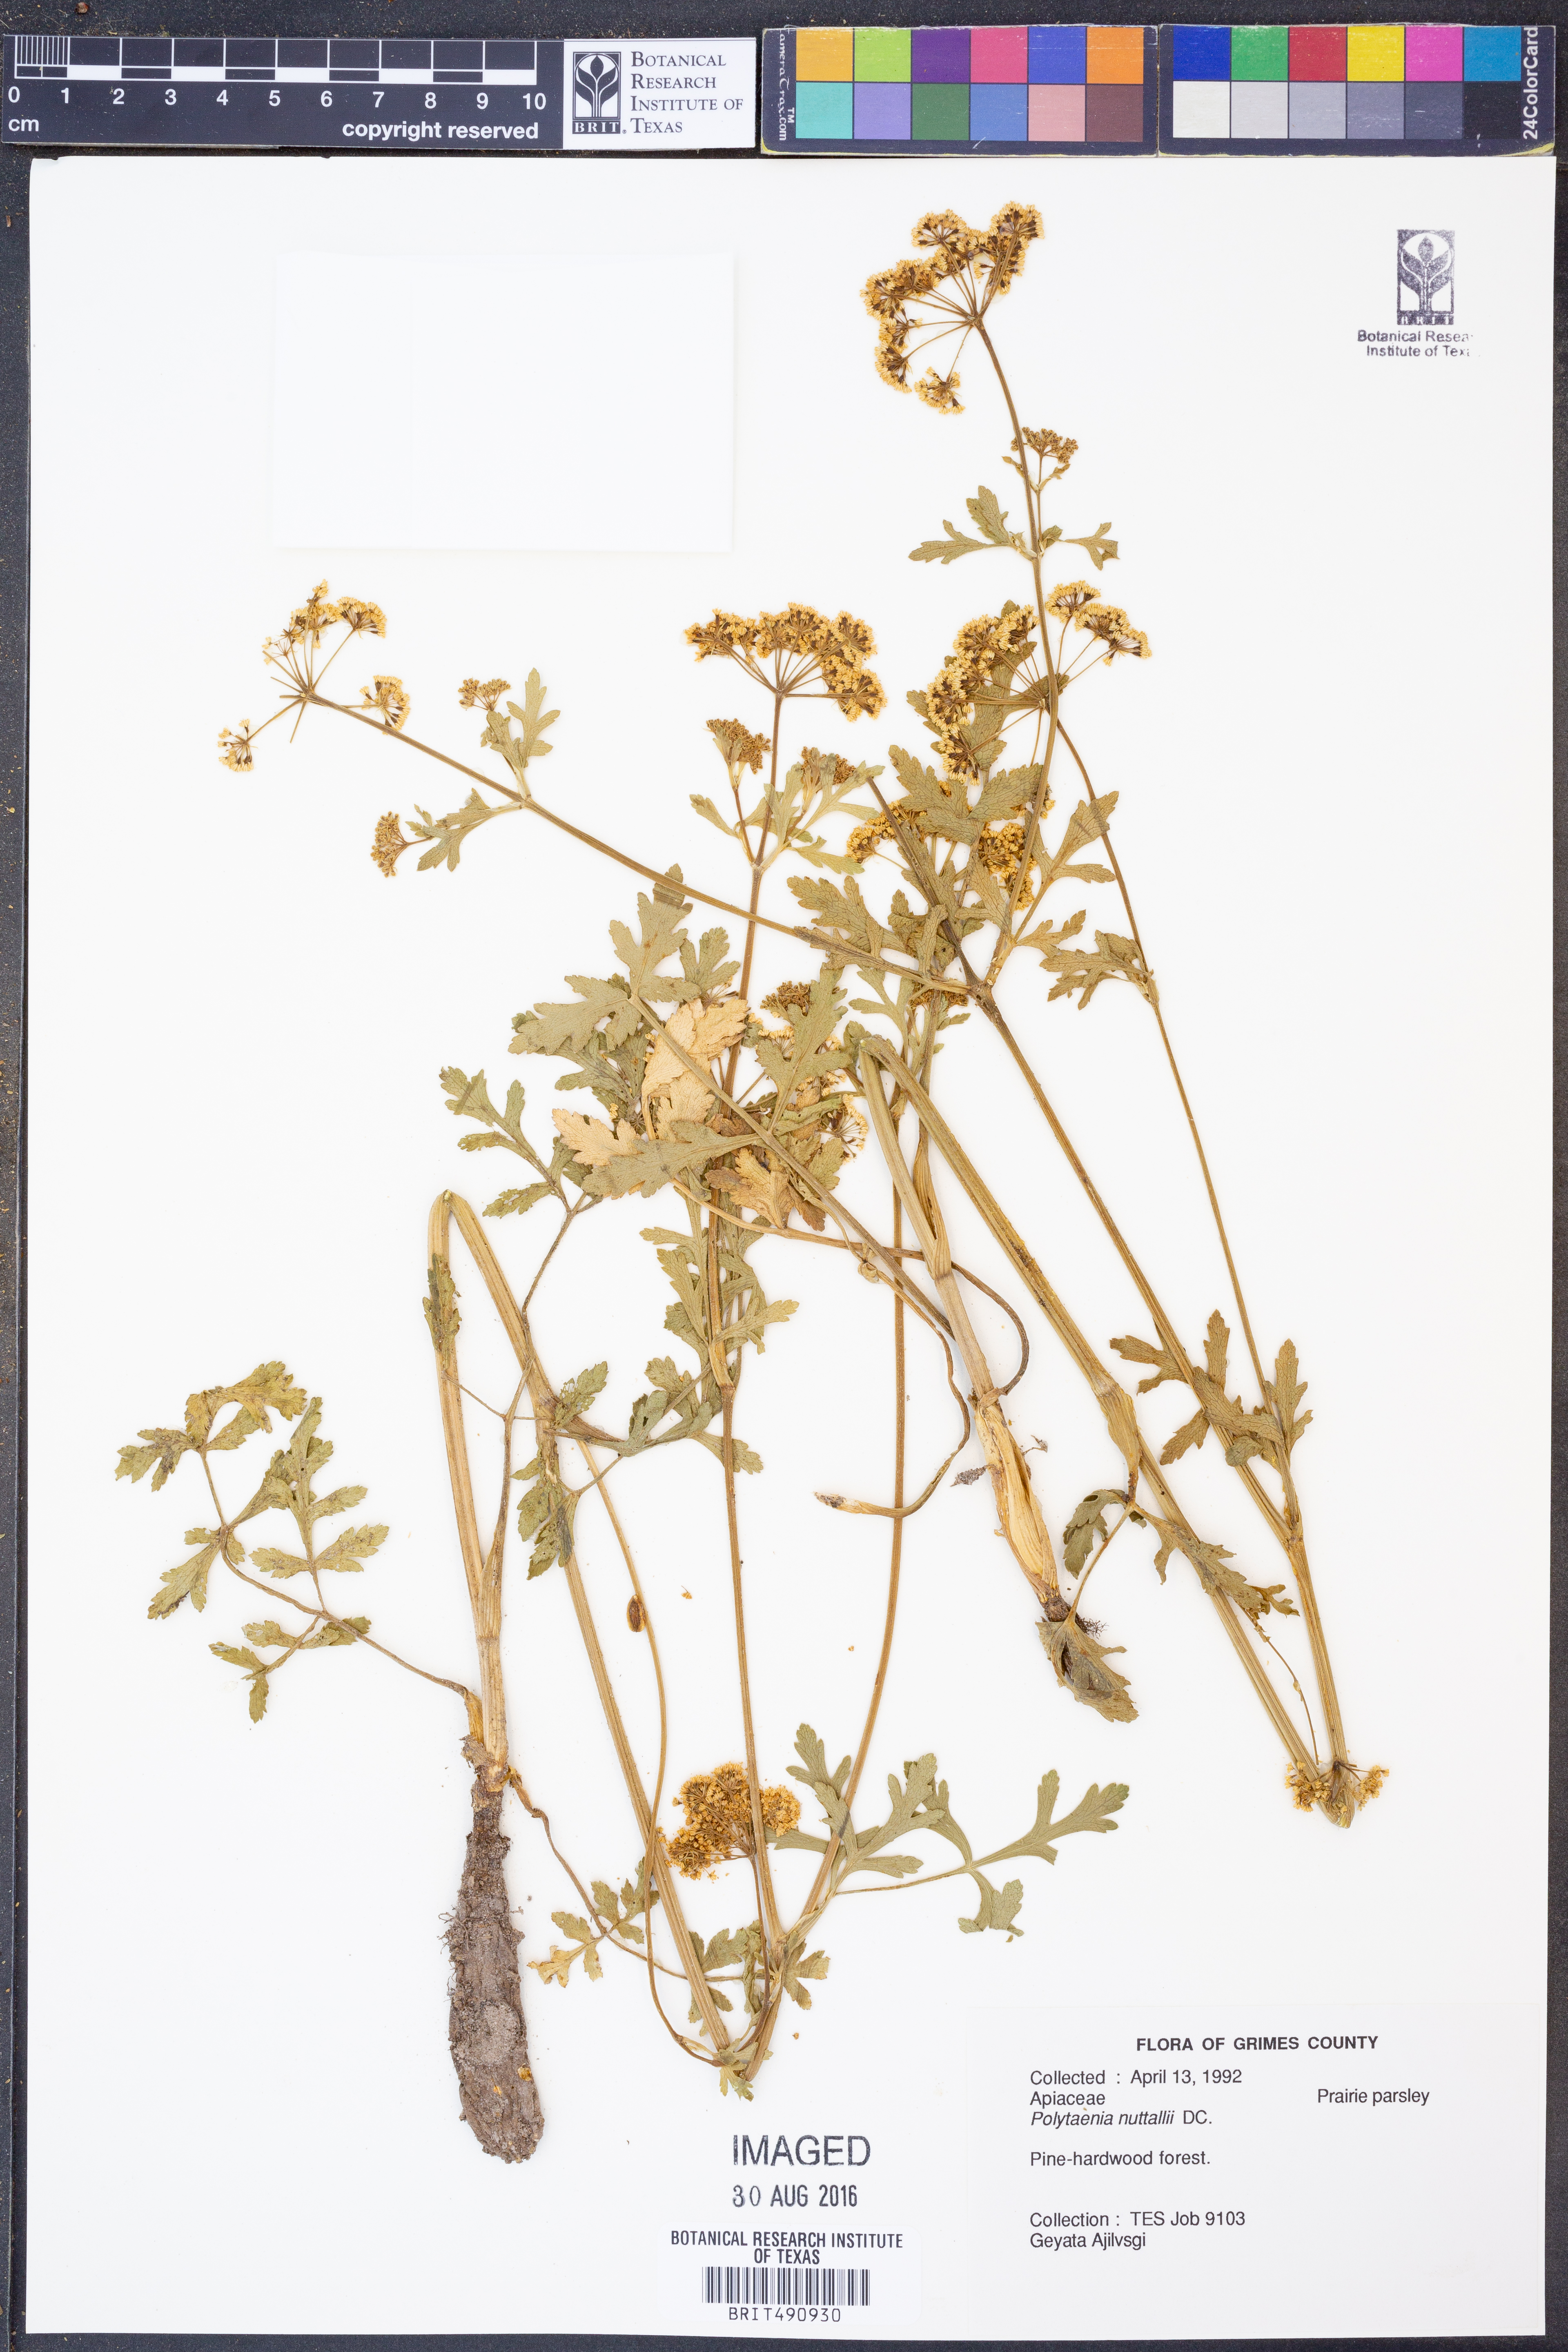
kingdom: Plantae
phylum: Tracheophyta
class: Magnoliopsida
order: Apiales
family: Apiaceae
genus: Polytaenia
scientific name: Polytaenia nuttallii
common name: Prairie-parsley
